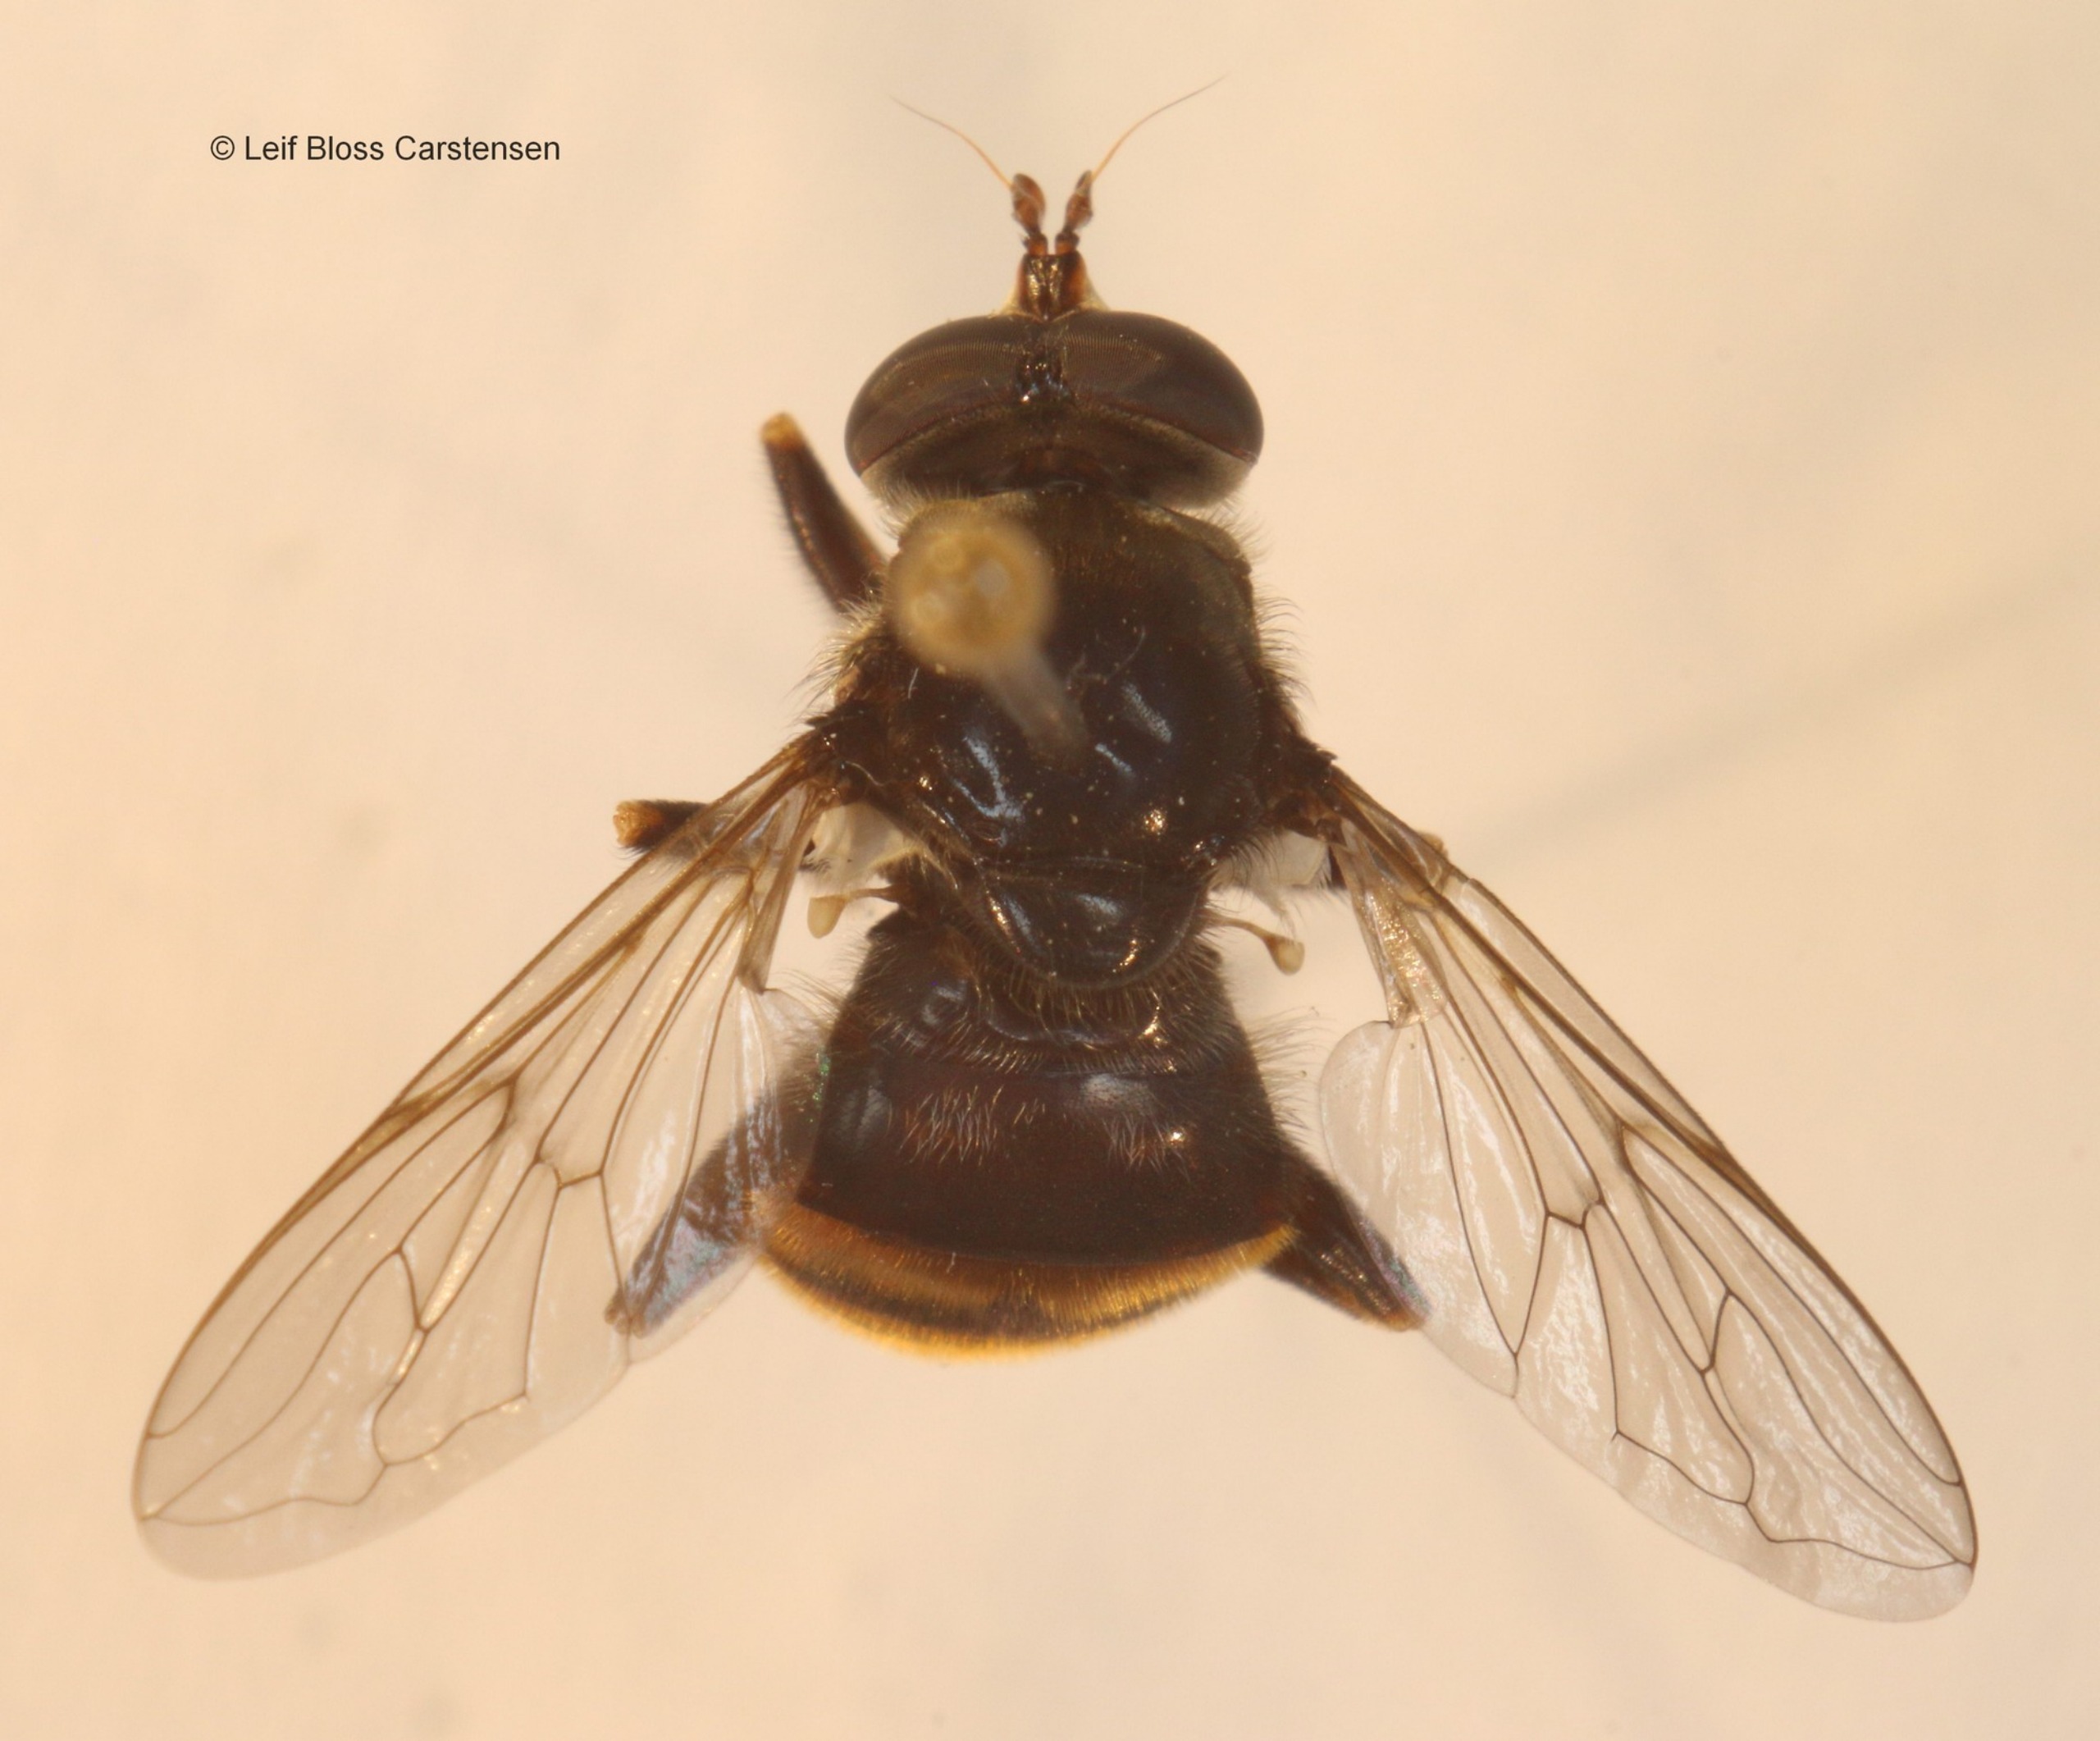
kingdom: Animalia
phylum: Arthropoda
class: Insecta
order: Diptera
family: Syrphidae
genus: Blera
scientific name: Blera fallax
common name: Stub-svirreflue
